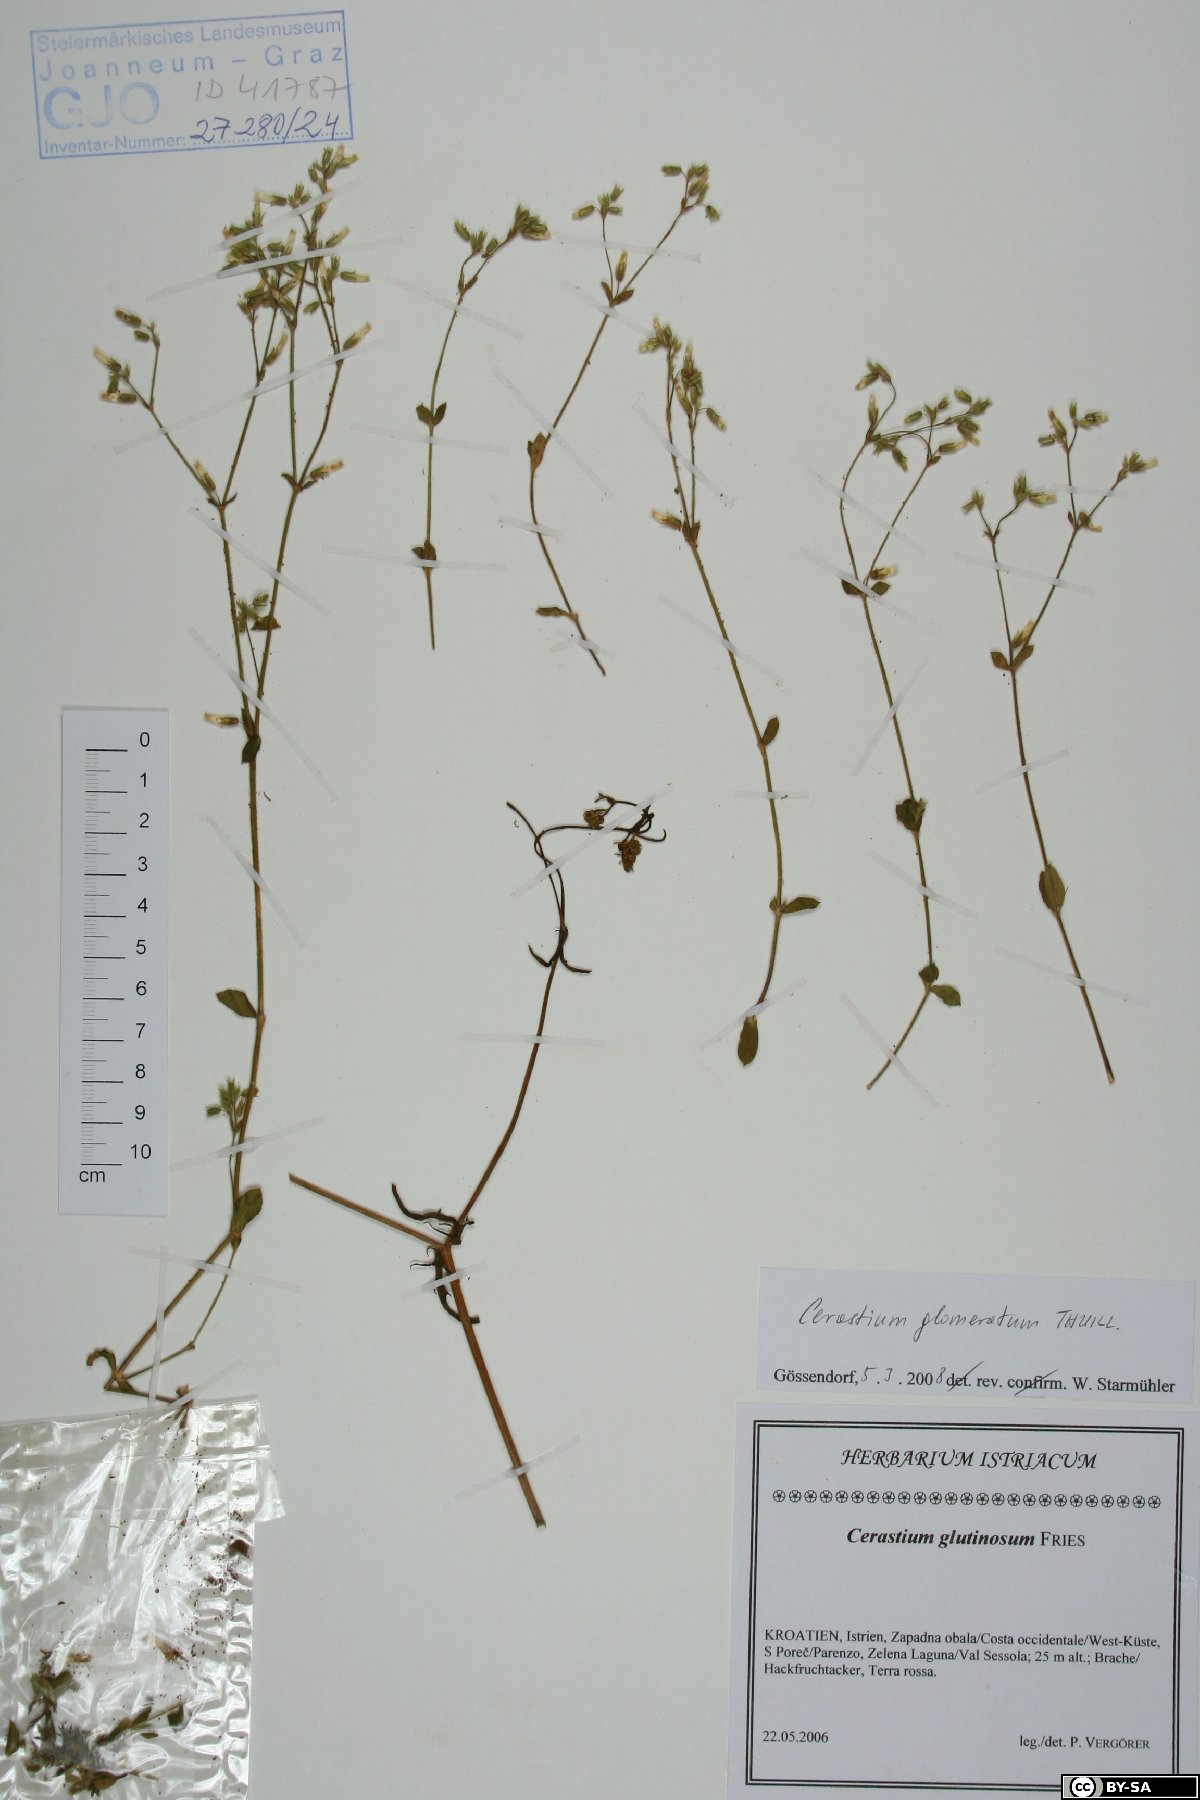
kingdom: Plantae
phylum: Tracheophyta
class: Magnoliopsida
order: Caryophyllales
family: Caryophyllaceae
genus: Cerastium
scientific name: Cerastium glomeratum
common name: Sticky chickweed
